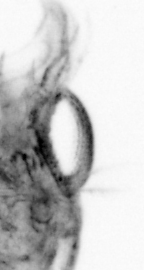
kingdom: Animalia
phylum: Arthropoda
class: Copepoda
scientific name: Copepoda
